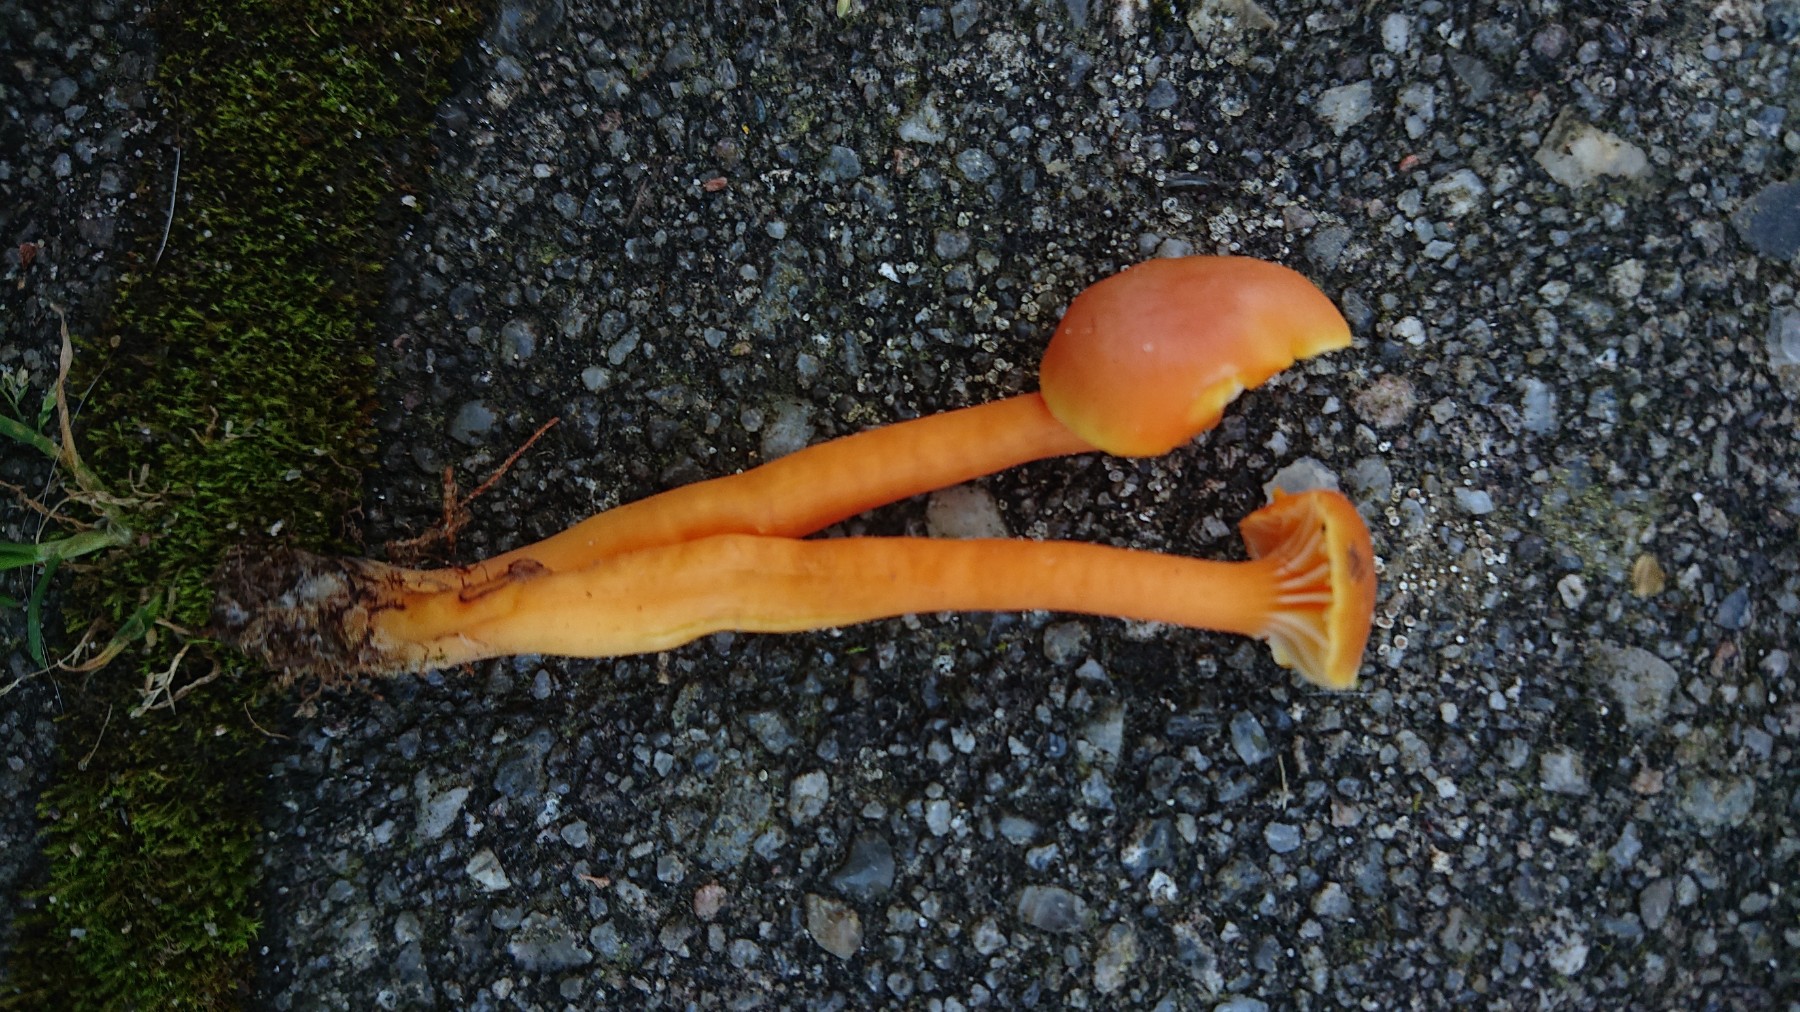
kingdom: Fungi
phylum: Basidiomycota
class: Agaricomycetes
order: Agaricales
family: Hygrophoraceae
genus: Hygrocybe
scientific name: Hygrocybe reidii
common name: honning-vokshat
